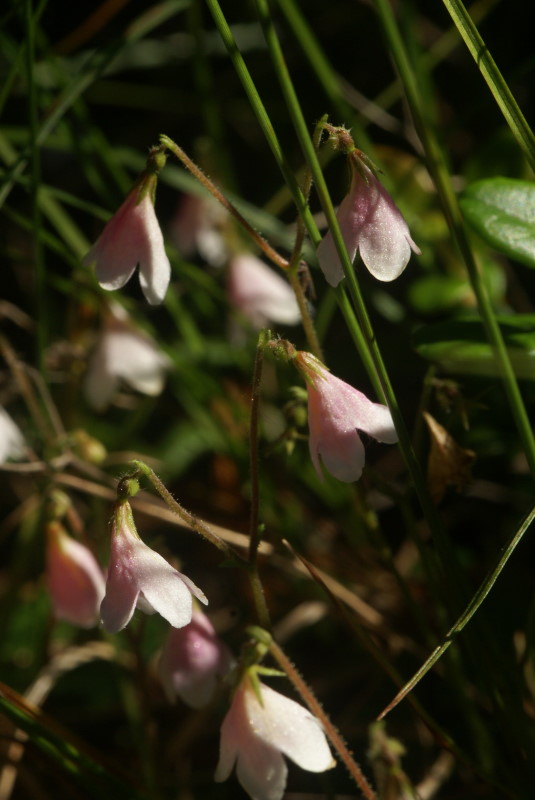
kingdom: Plantae
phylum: Tracheophyta
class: Magnoliopsida
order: Dipsacales
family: Caprifoliaceae
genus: Linnaea
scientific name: Linnaea borealis
